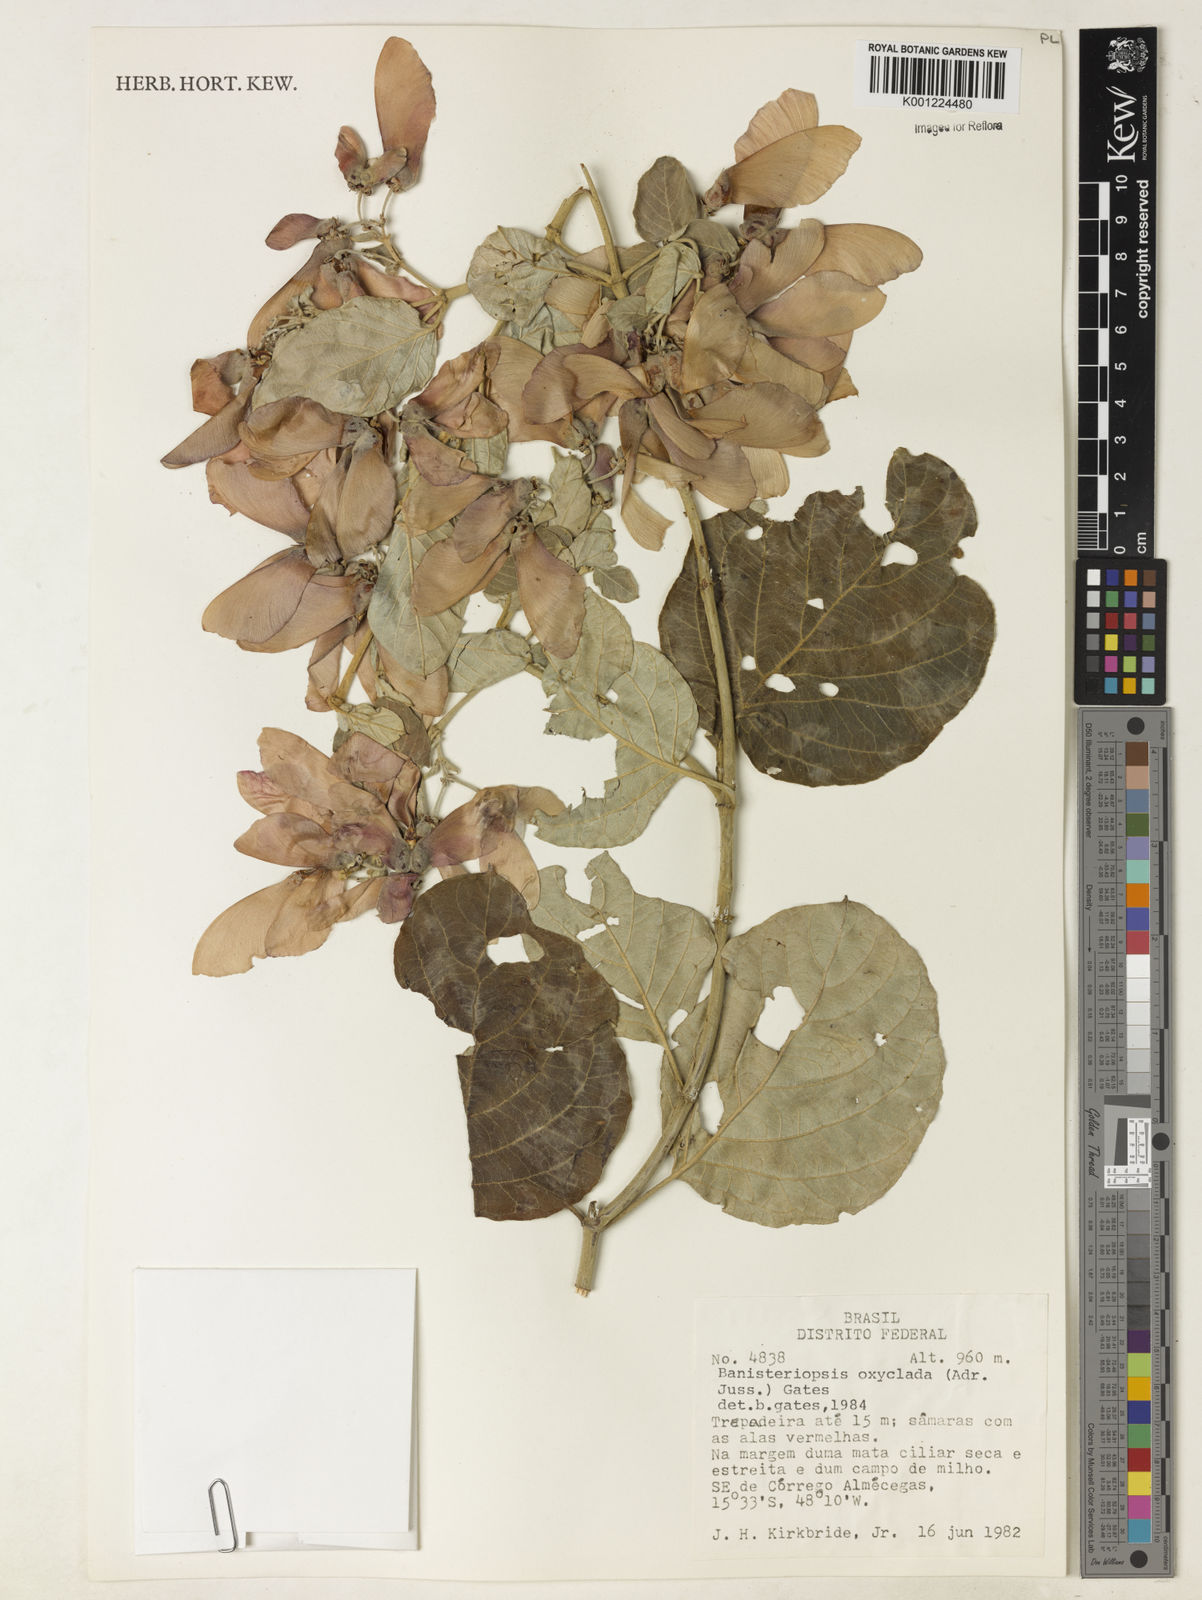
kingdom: Plantae
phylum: Tracheophyta
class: Magnoliopsida
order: Malpighiales
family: Malpighiaceae
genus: Banisteriopsis
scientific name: Banisteriopsis oxyclada
